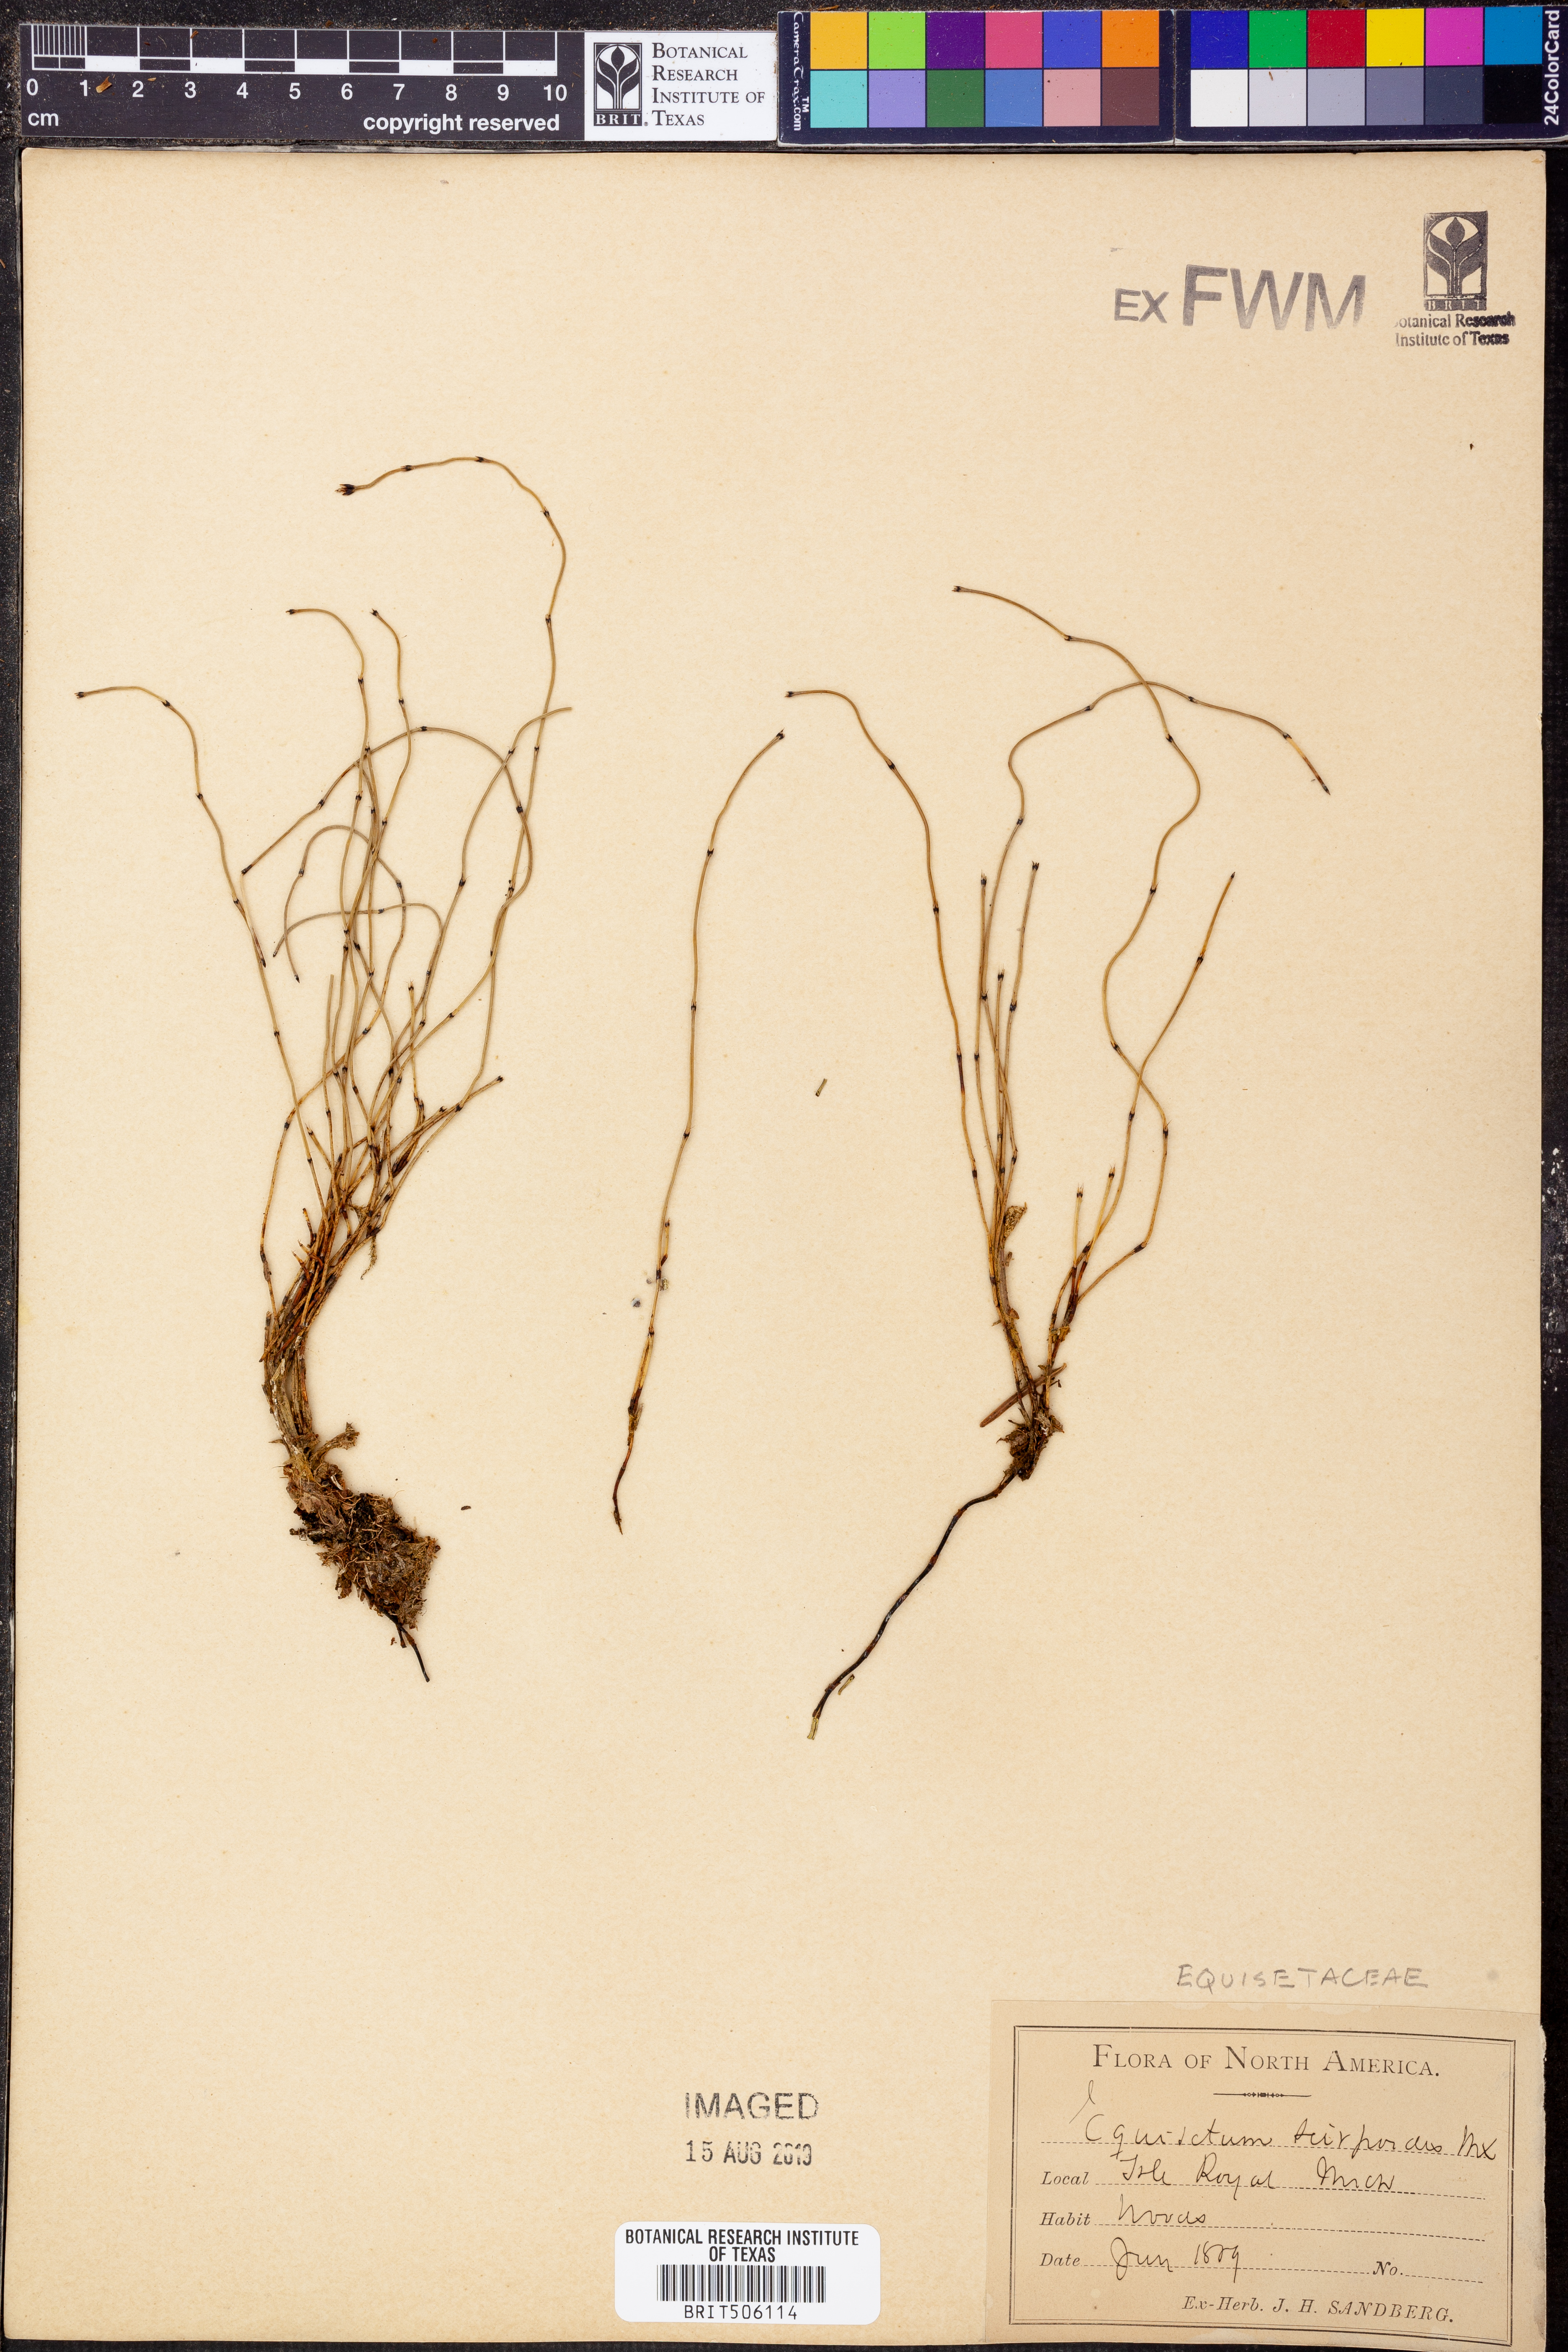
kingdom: Plantae
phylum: Tracheophyta
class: Polypodiopsida
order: Equisetales
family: Equisetaceae
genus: Equisetum
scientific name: Equisetum scirpoides
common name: Delicate horsetail
